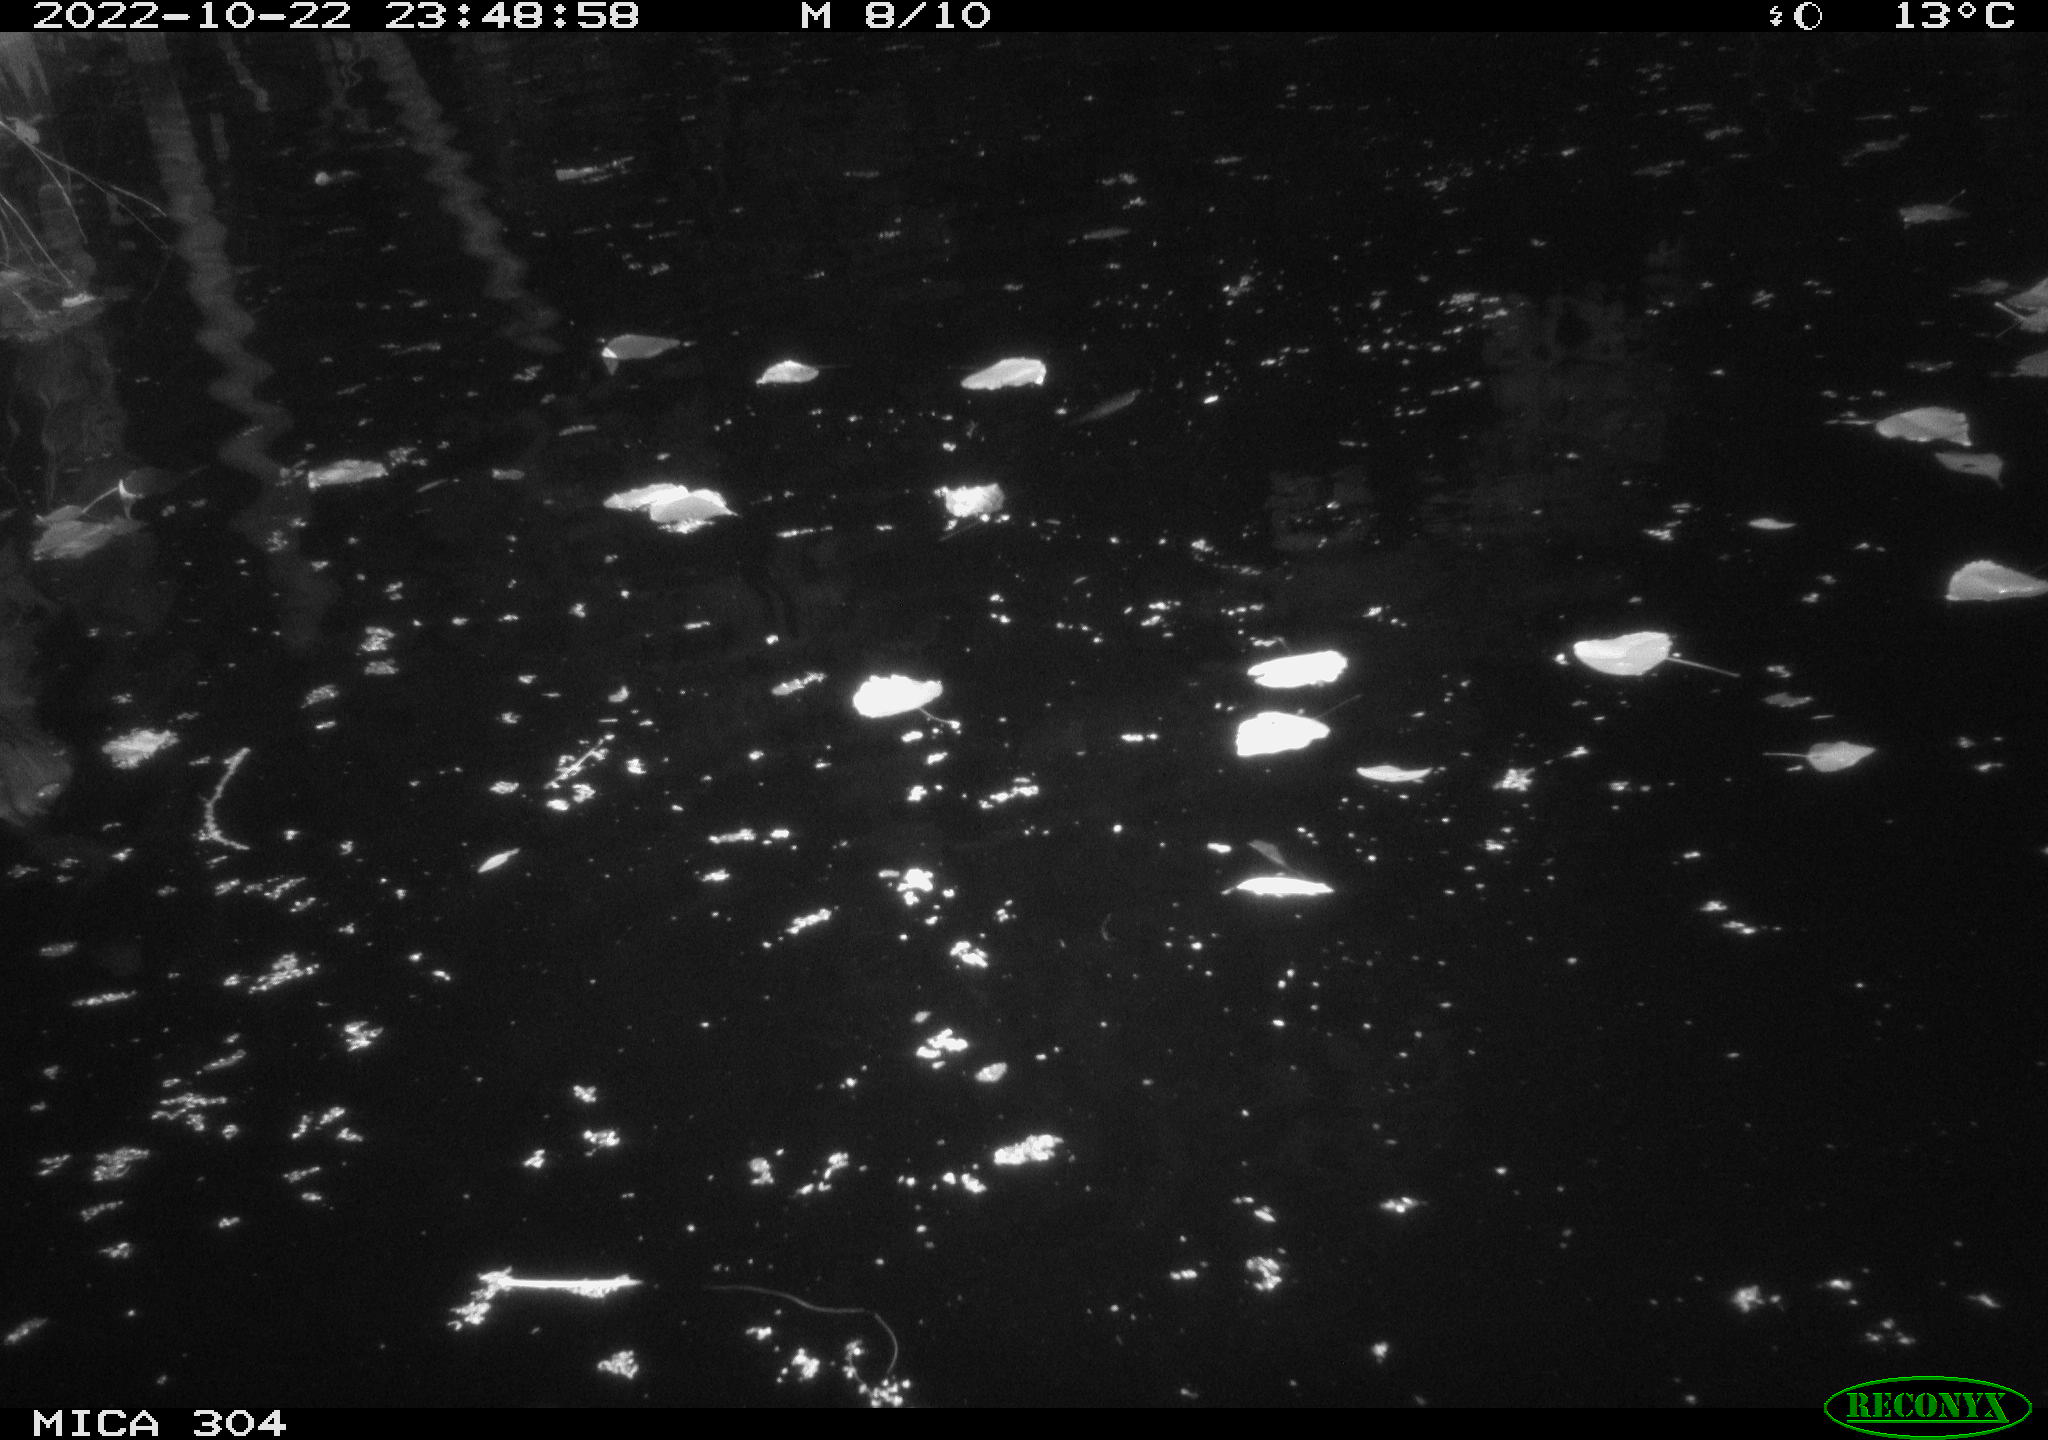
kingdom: Animalia
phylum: Chordata
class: Mammalia
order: Rodentia
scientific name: Rodentia
